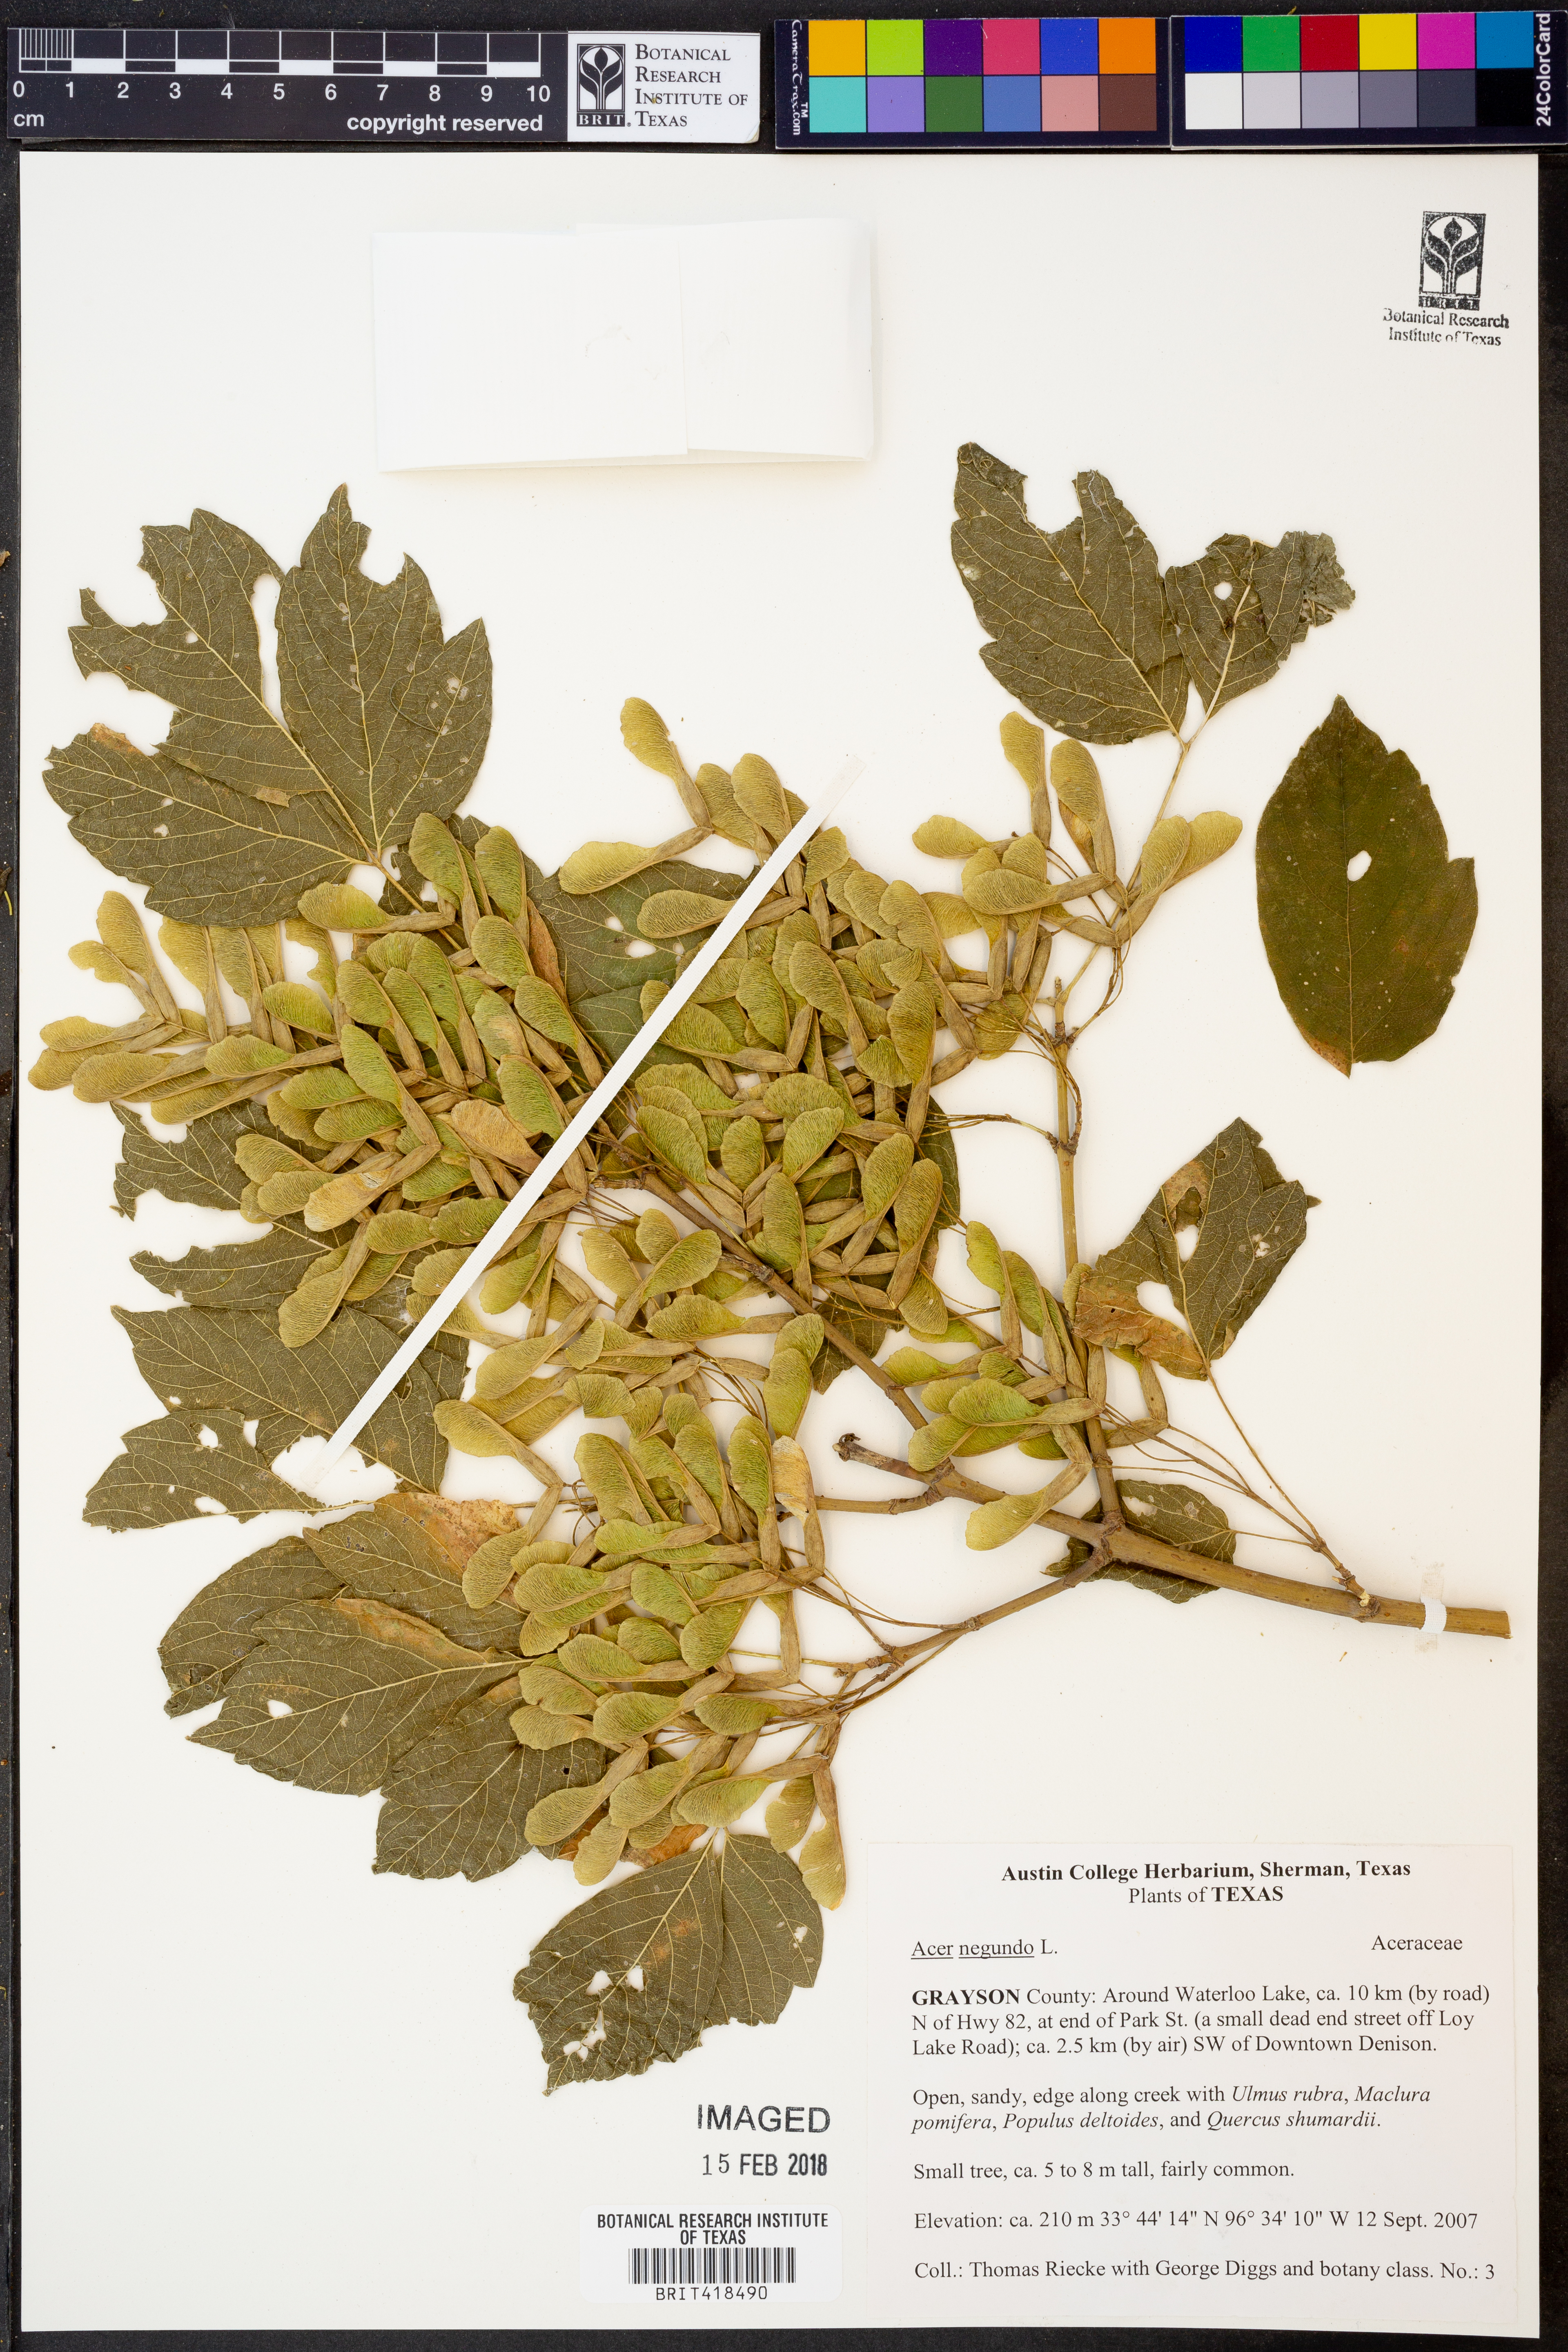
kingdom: Plantae
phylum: Tracheophyta
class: Magnoliopsida
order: Sapindales
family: Sapindaceae
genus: Acer
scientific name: Acer negundo
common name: Ashleaf maple
